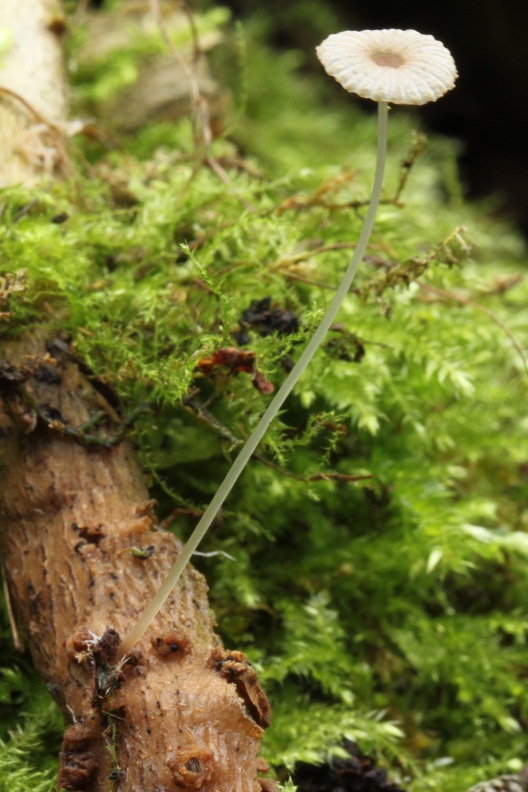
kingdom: Fungi
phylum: Basidiomycota
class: Agaricomycetes
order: Agaricales
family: Psathyrellaceae
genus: Parasola
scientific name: Parasola lactea
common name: glat hjulhat
